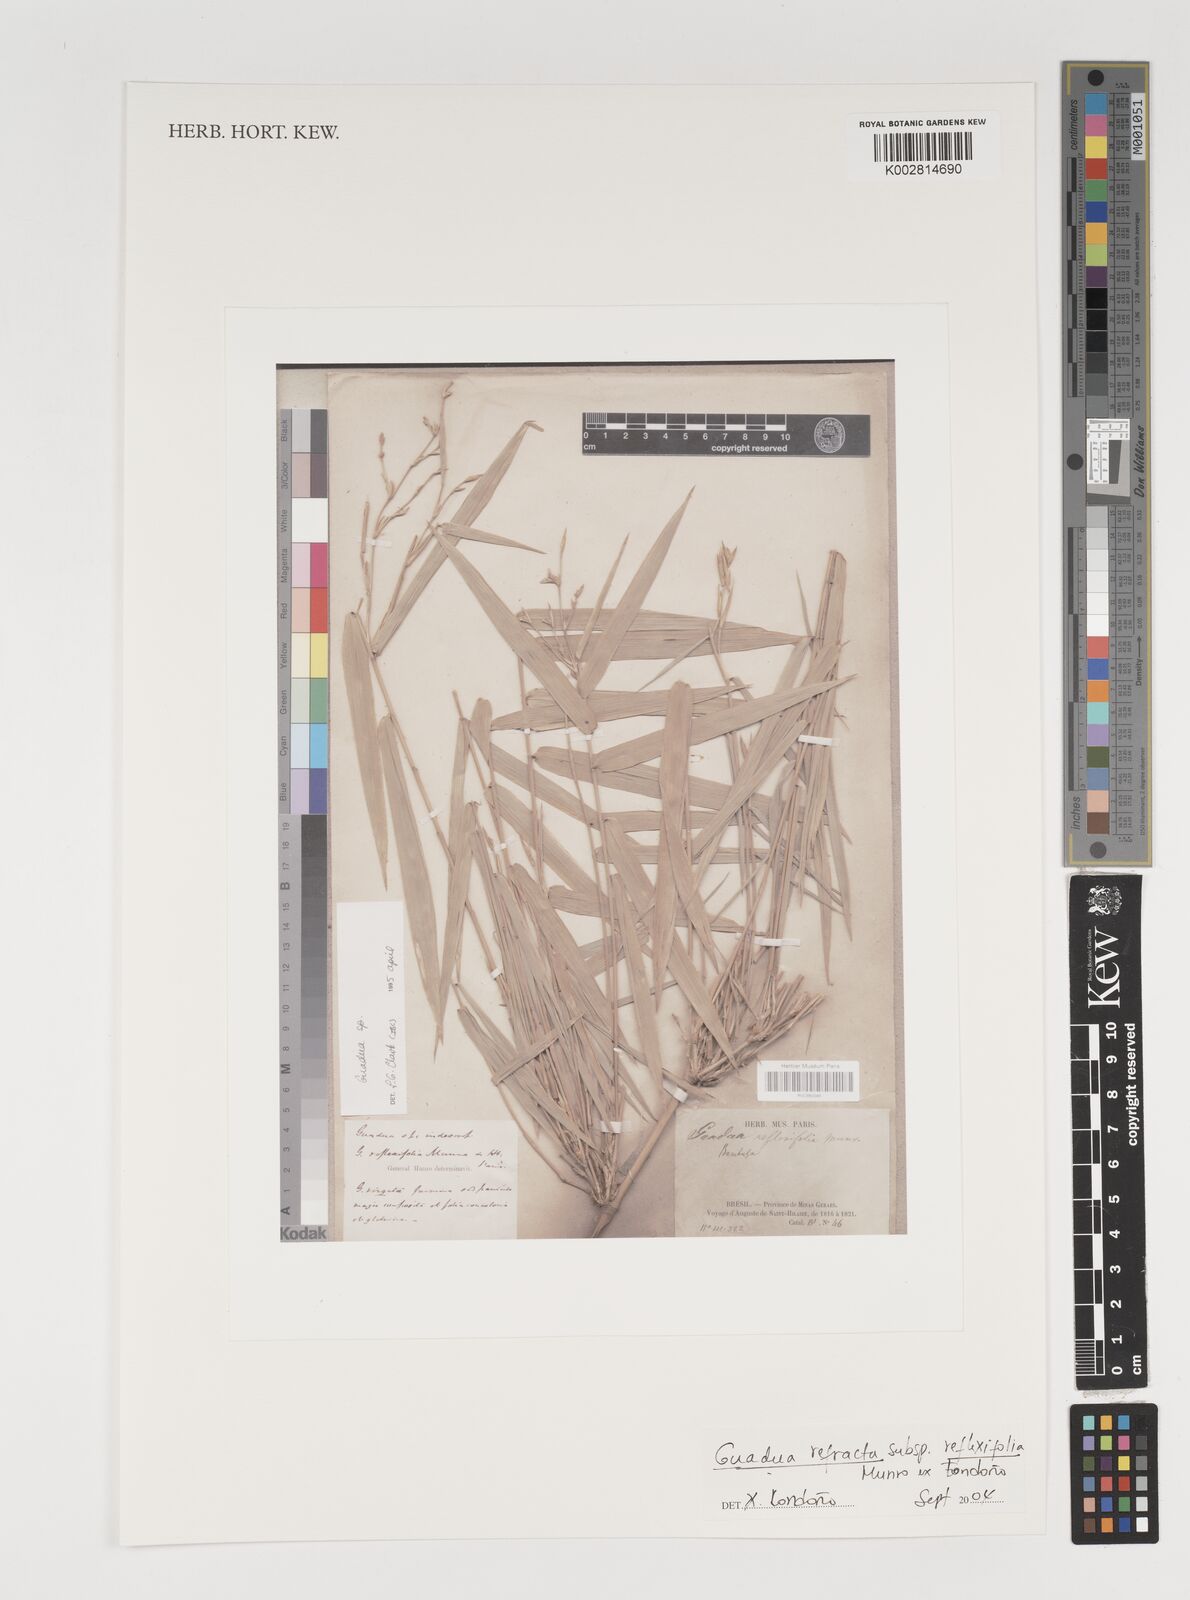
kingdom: Plantae
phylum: Tracheophyta
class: Liliopsida
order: Poales
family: Poaceae
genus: Guadua
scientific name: Guadua refracta
